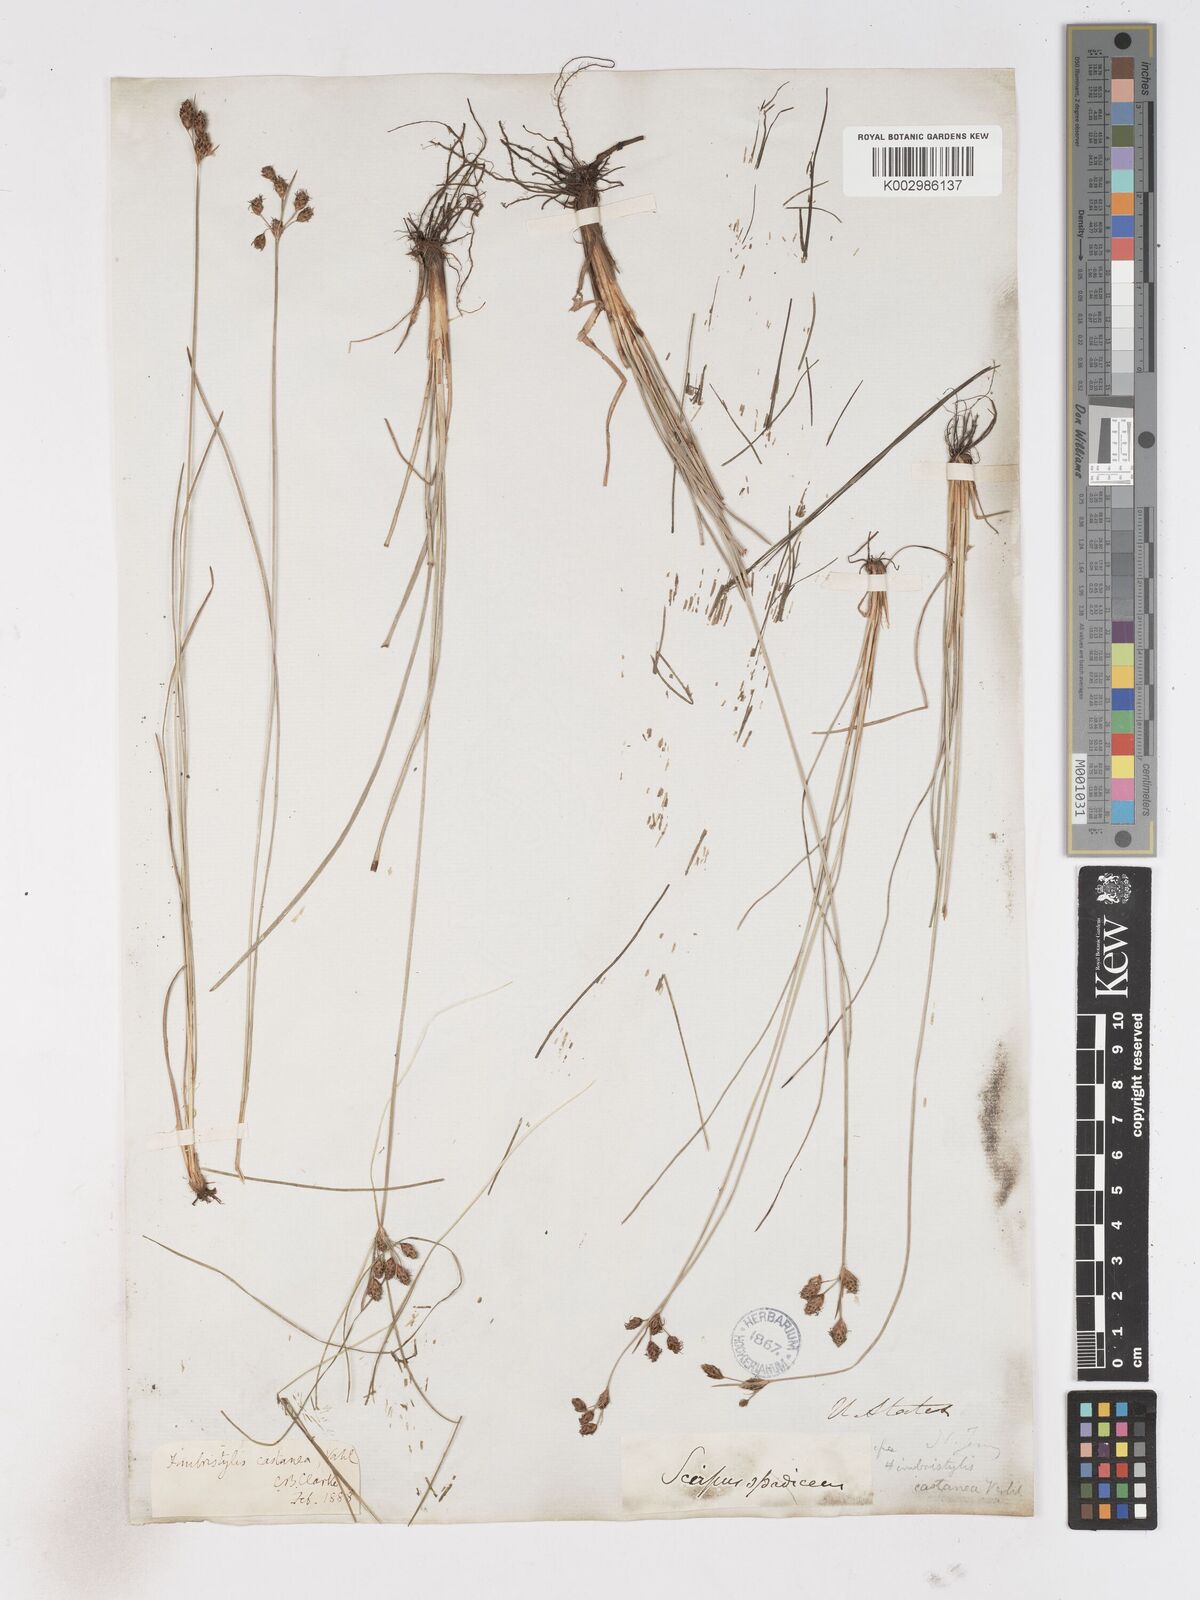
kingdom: Plantae
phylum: Tracheophyta
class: Liliopsida
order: Poales
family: Cyperaceae
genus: Fimbristylis
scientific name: Fimbristylis spadicea
